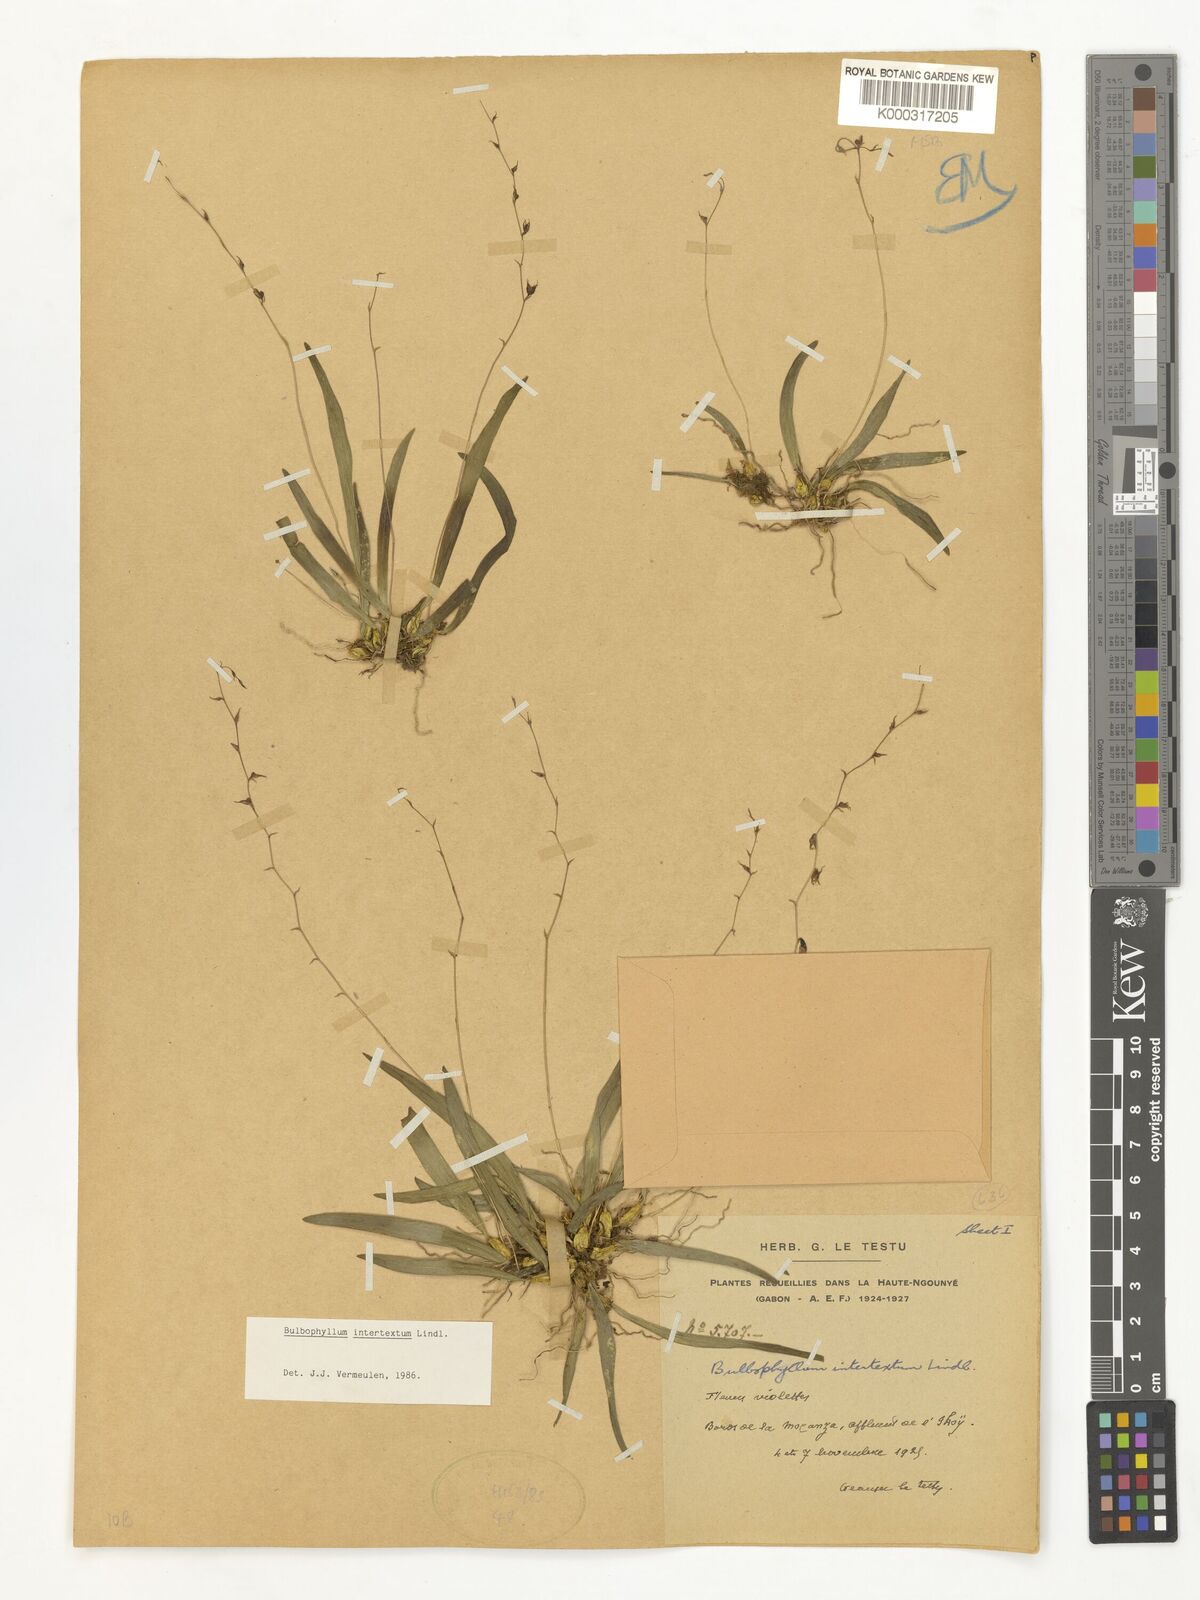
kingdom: Plantae
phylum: Tracheophyta
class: Liliopsida
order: Asparagales
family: Orchidaceae
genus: Bulbophyllum
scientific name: Bulbophyllum intertextum
